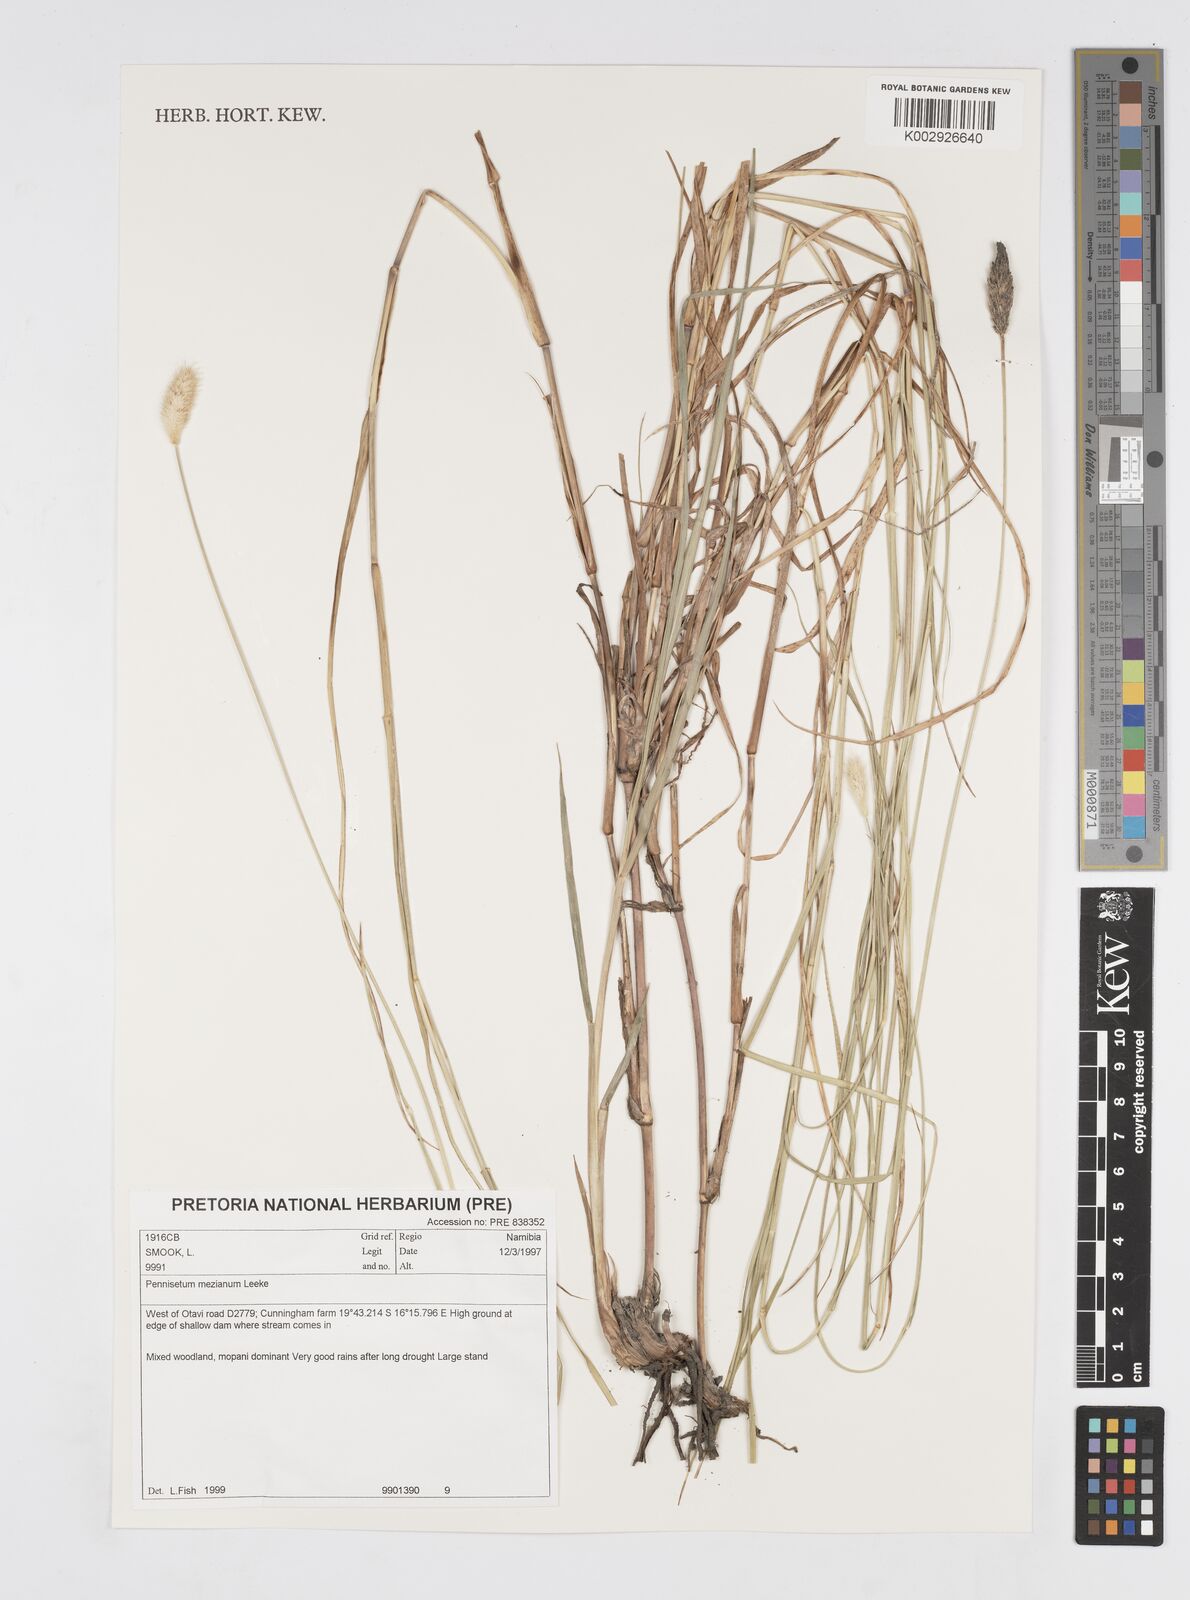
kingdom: Plantae
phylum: Tracheophyta
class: Liliopsida
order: Poales
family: Poaceae
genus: Cenchrus
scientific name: Cenchrus mezianus
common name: Bamboo grass
